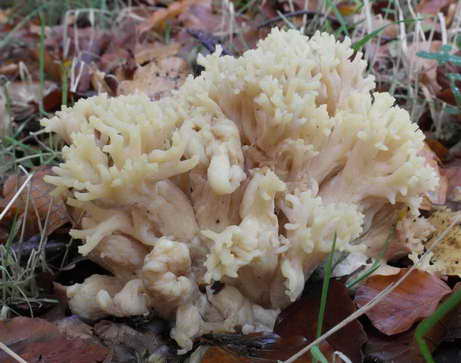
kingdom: Fungi
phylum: Basidiomycota
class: Agaricomycetes
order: Gomphales
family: Gomphaceae
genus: Ramaria
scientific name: Ramaria krieglsteineri
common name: smalsporet koralsvamp
